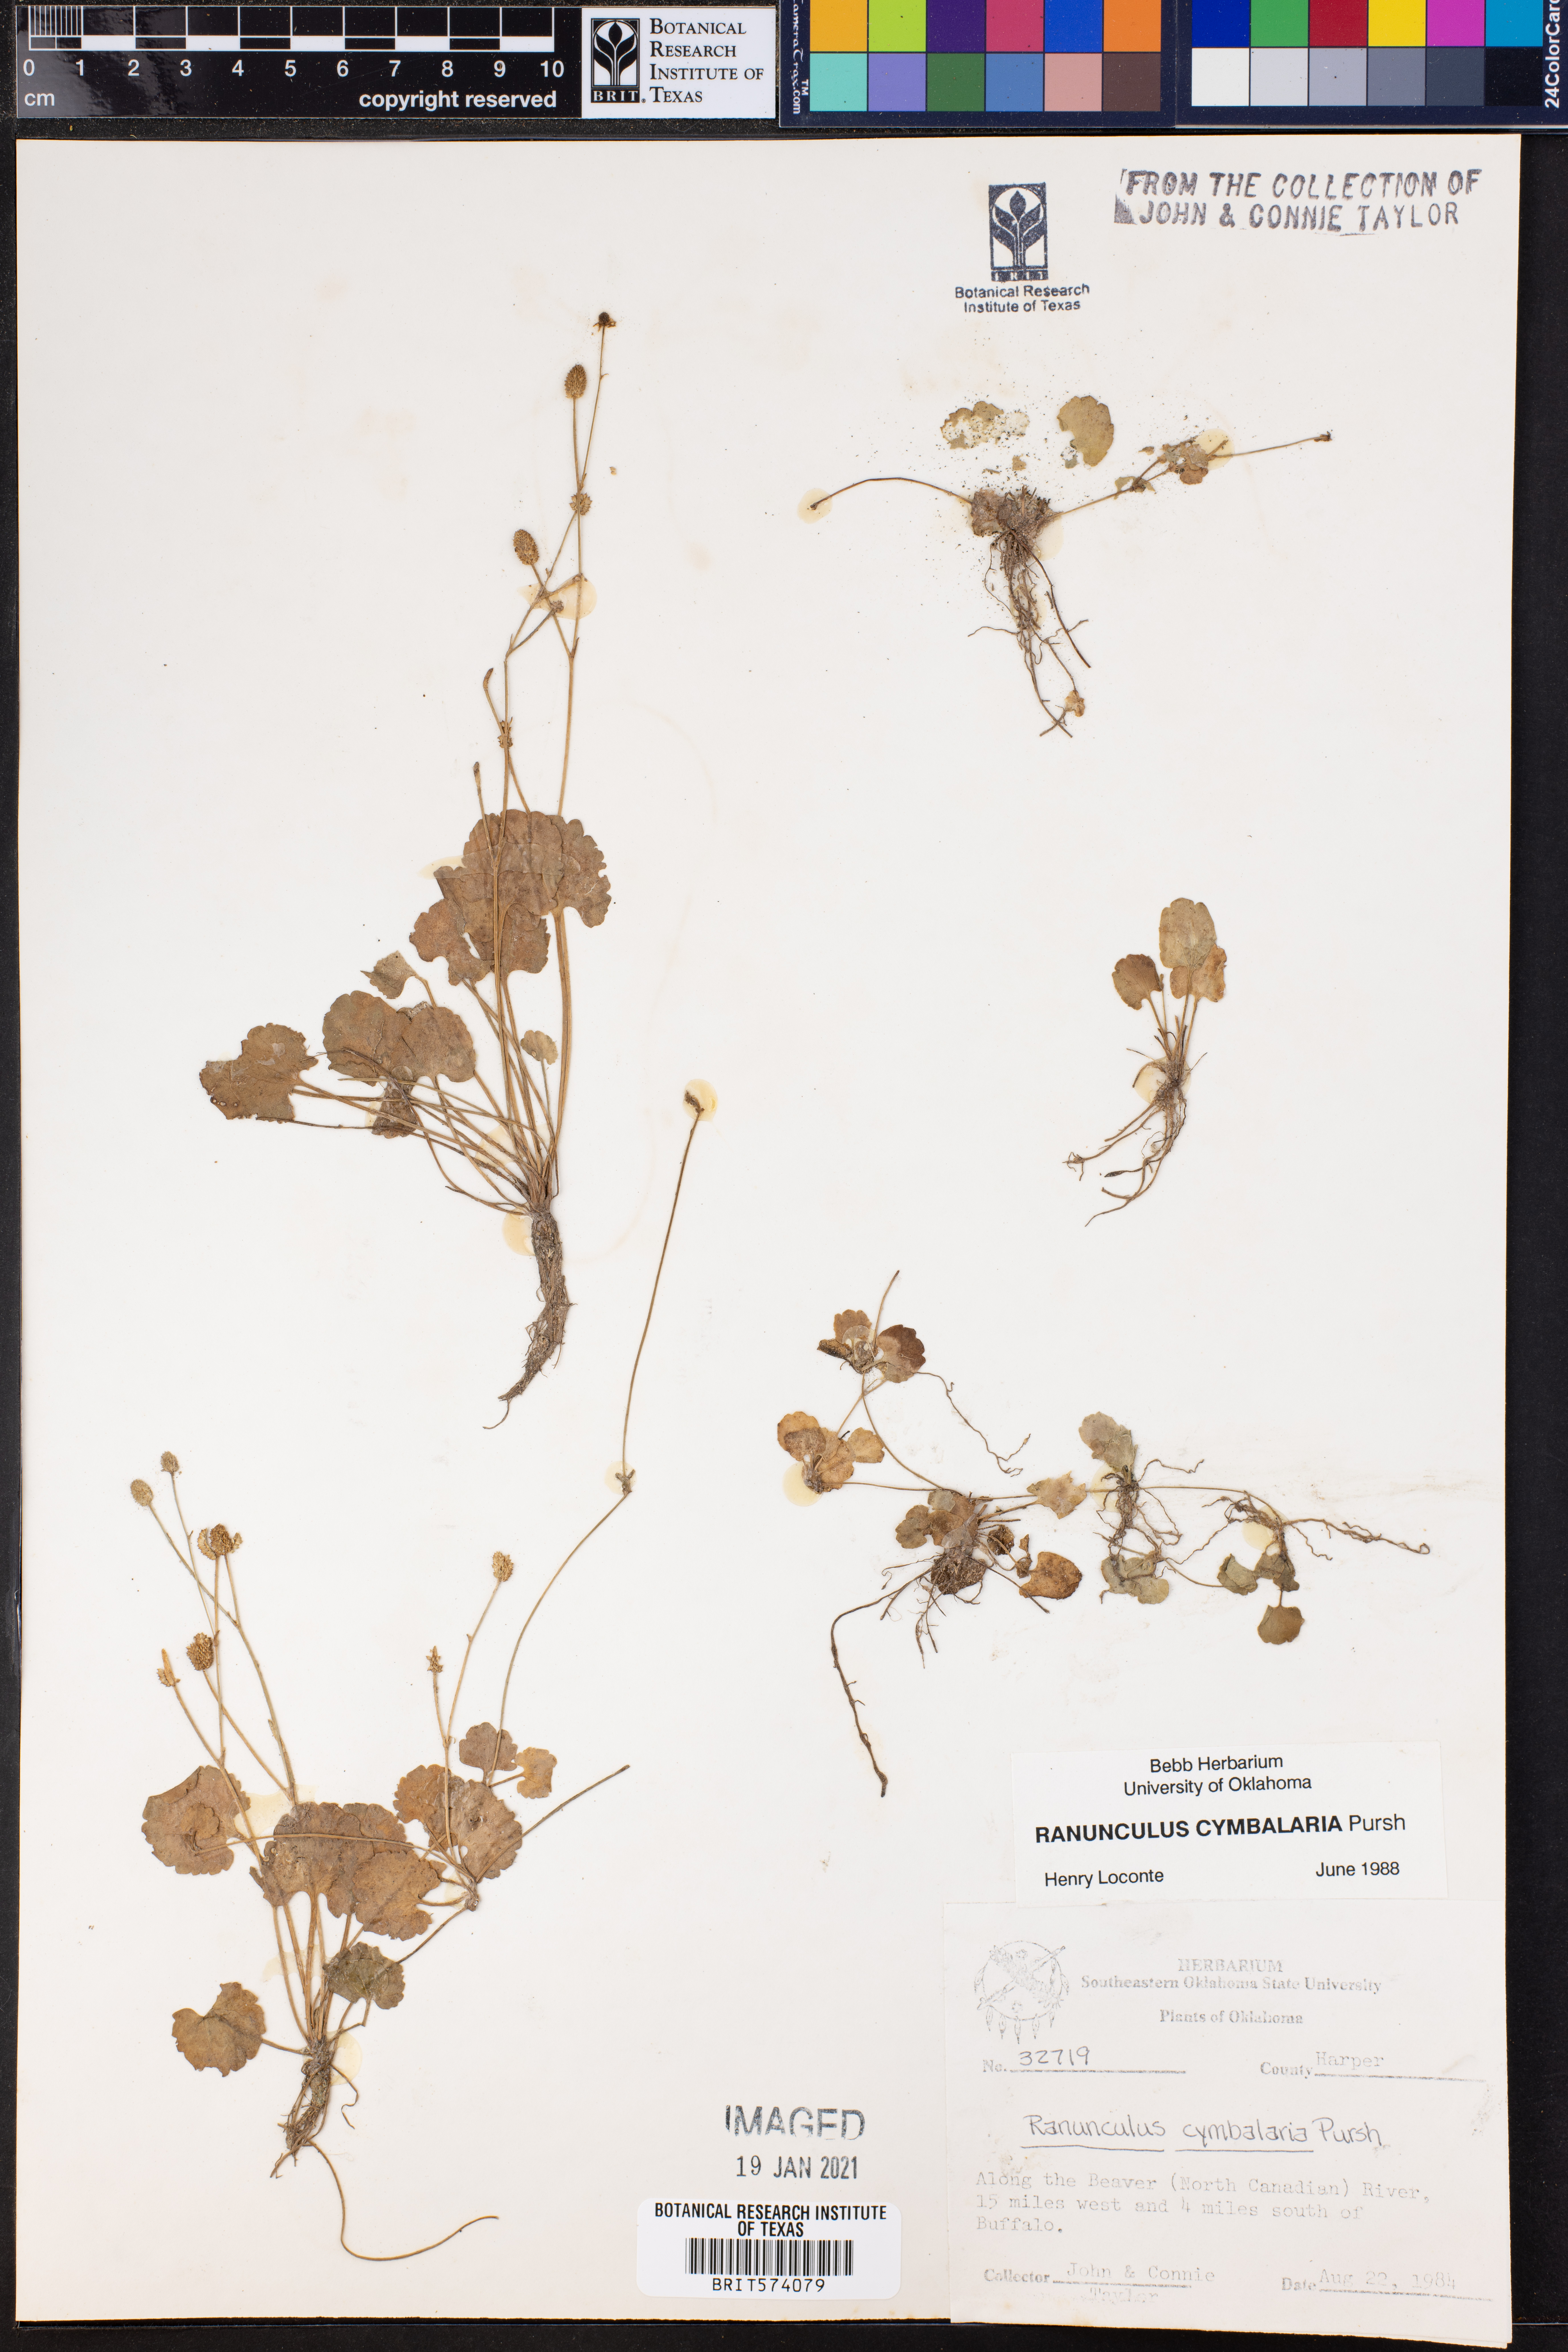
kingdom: Plantae
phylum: Tracheophyta
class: Magnoliopsida
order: Ranunculales
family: Ranunculaceae
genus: Halerpestes
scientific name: Halerpestes cymbalaria
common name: Seaside crowfoot
